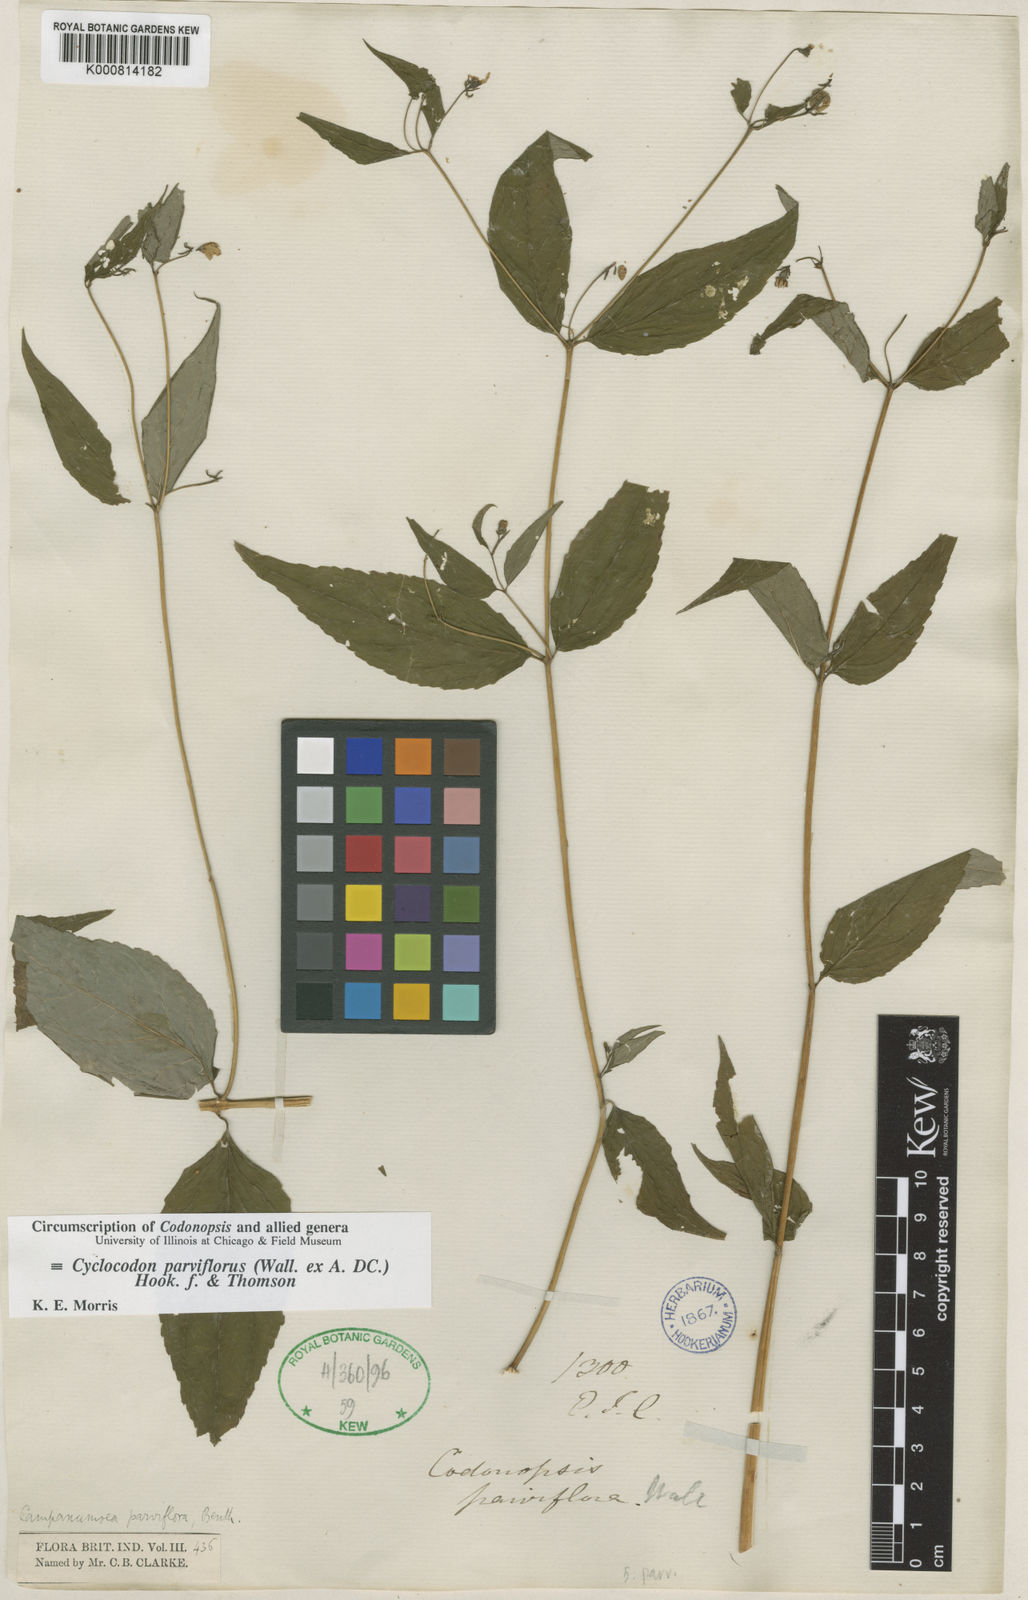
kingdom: Plantae
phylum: Tracheophyta
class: Magnoliopsida
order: Asterales
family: Campanulaceae
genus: Cyclocodon
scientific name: Cyclocodon parviflorus
